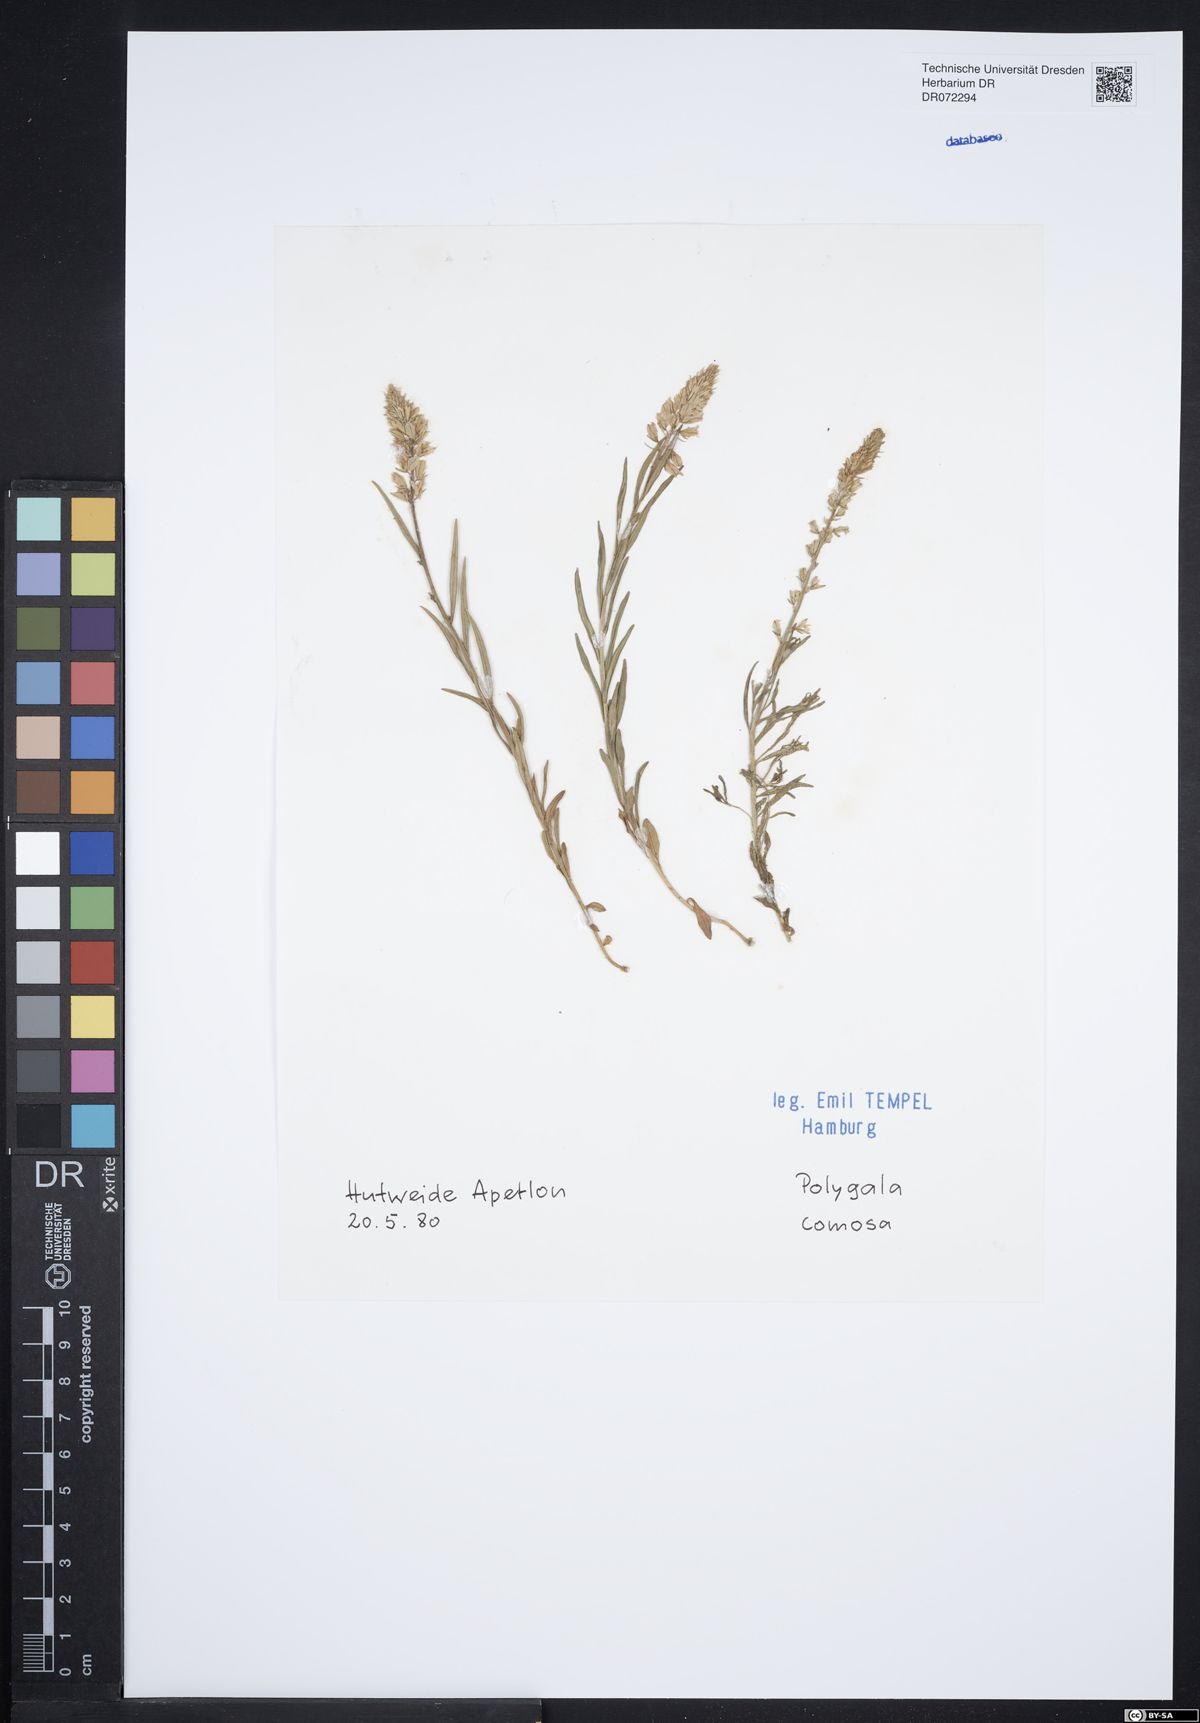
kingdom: Plantae
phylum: Tracheophyta
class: Magnoliopsida
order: Fabales
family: Polygalaceae
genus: Polygala
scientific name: Polygala comosa
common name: Tufted milkwort
